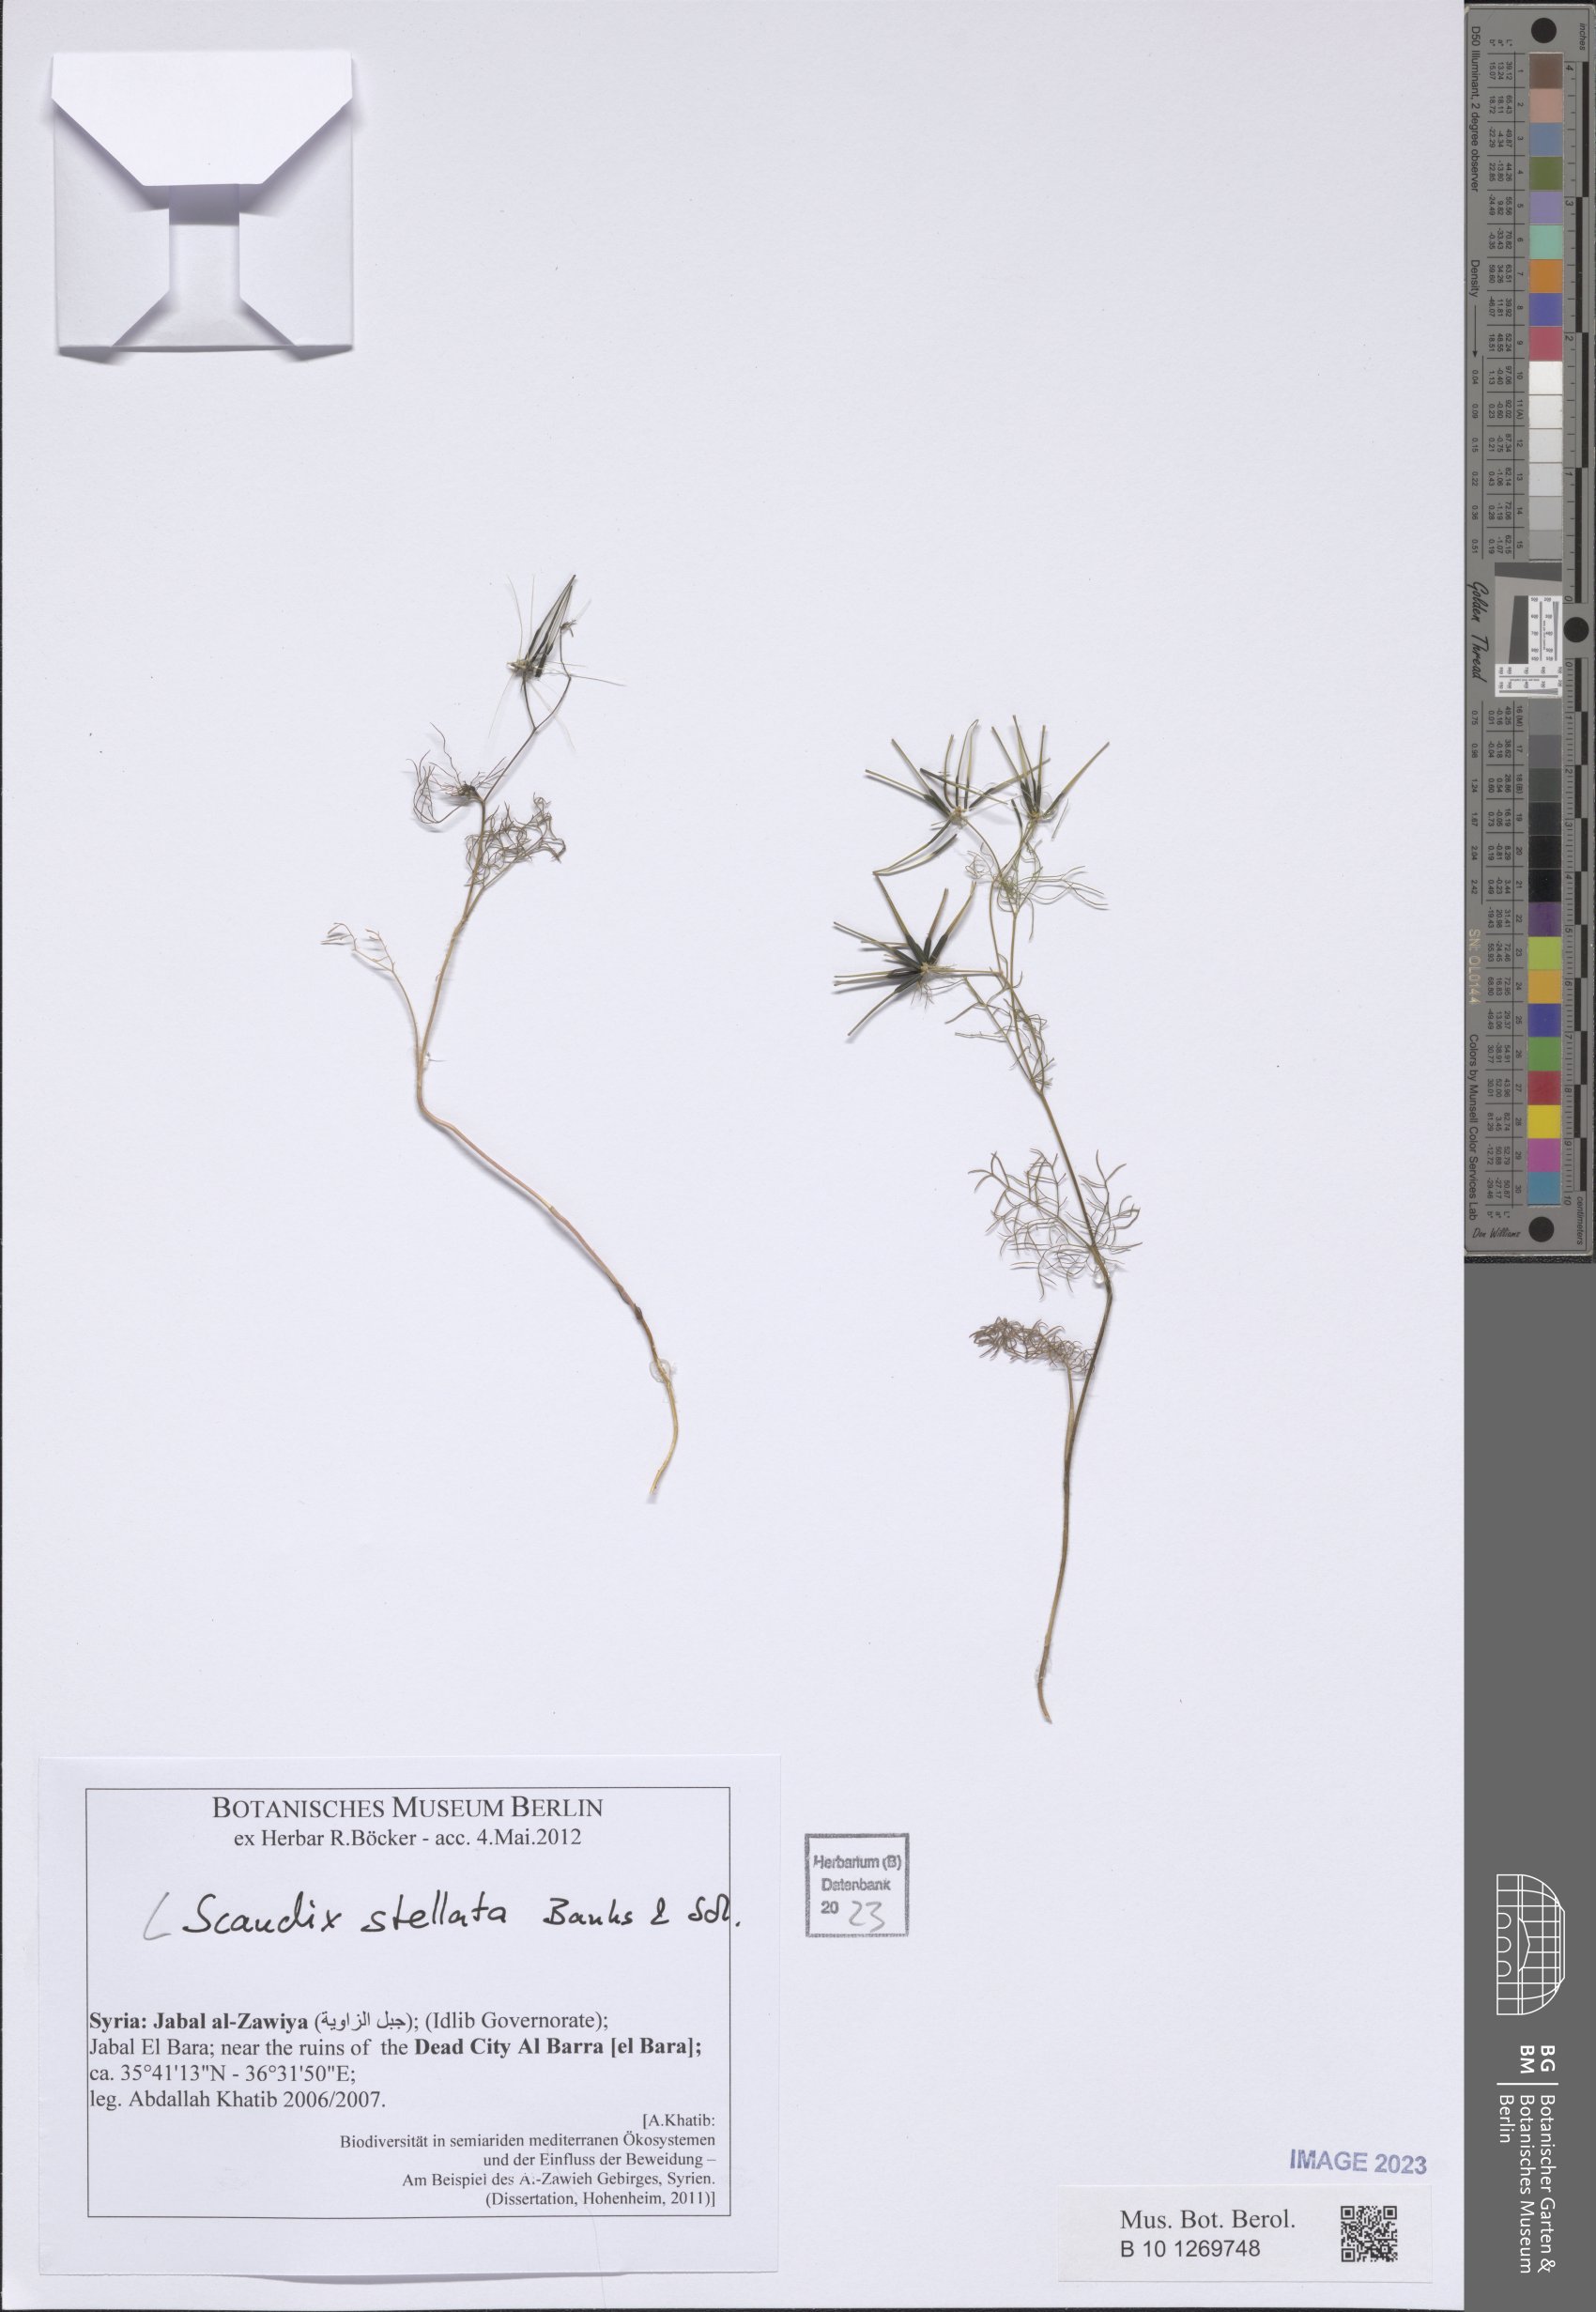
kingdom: Plantae
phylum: Tracheophyta
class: Magnoliopsida
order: Apiales
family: Apiaceae
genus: Scandix
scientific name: Scandix stellata
